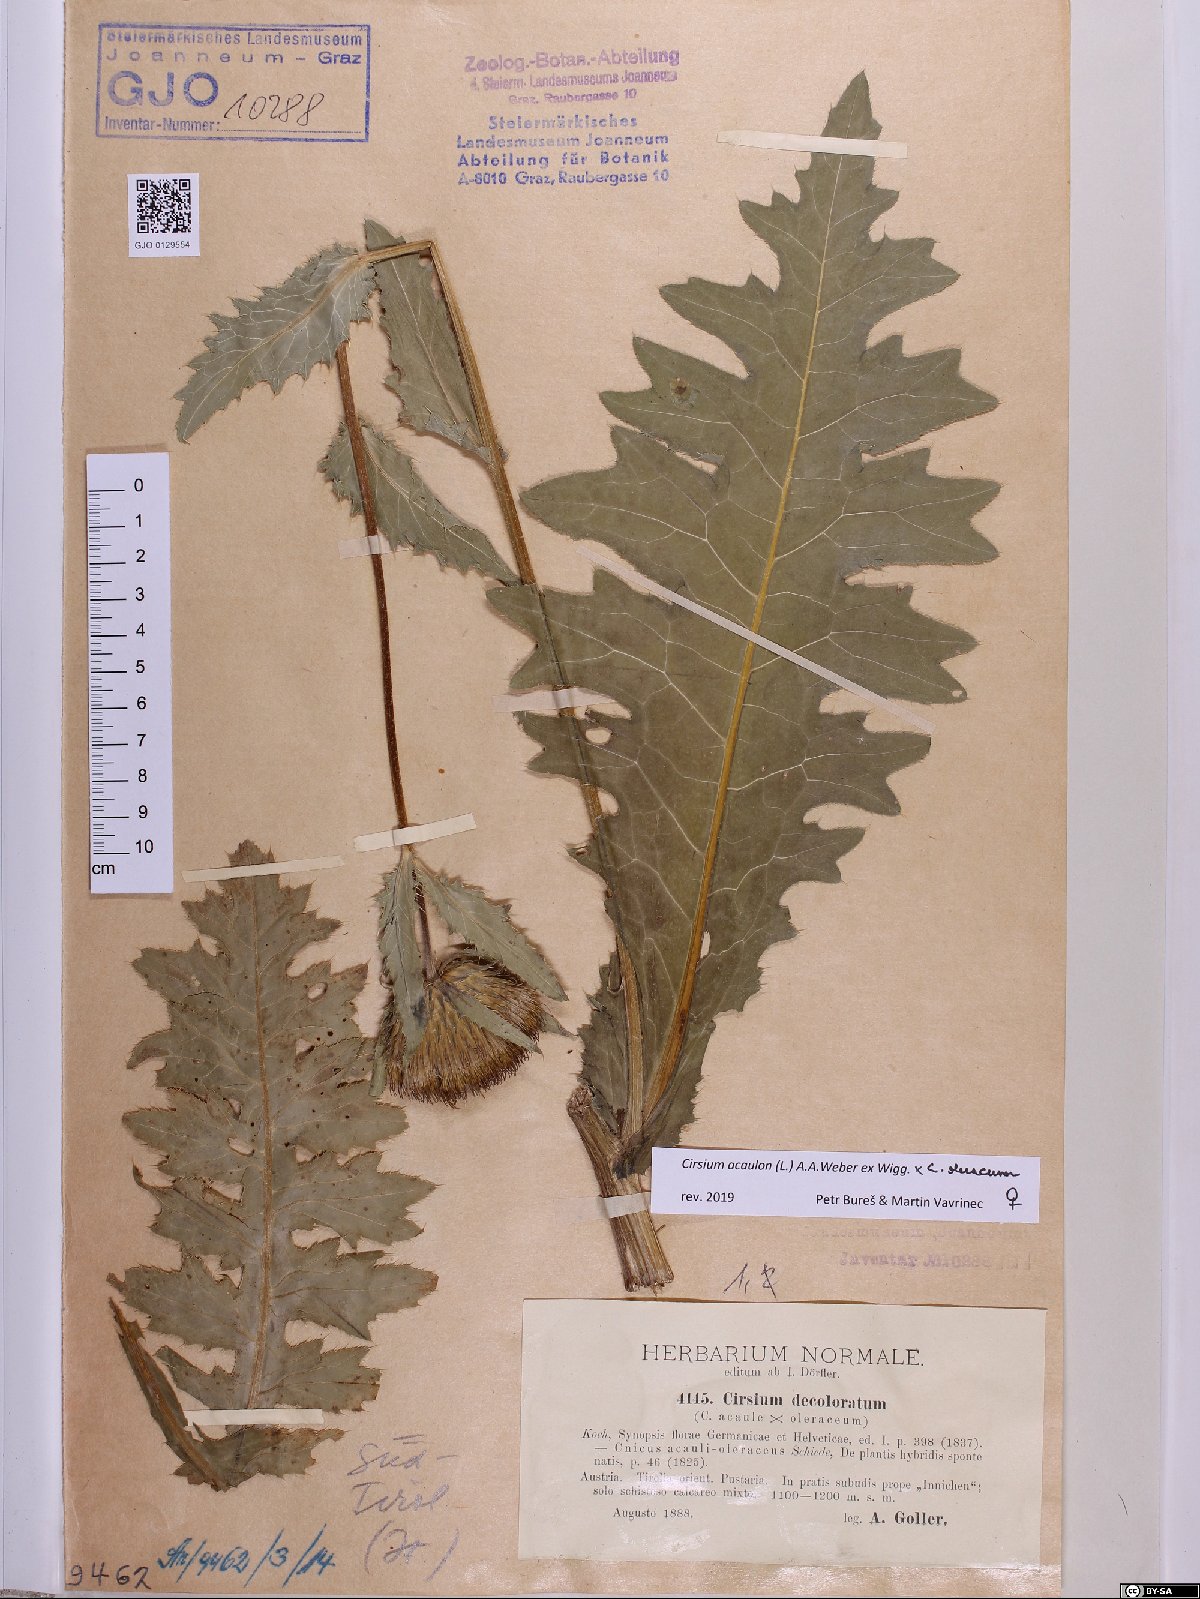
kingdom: Plantae
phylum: Tracheophyta
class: Magnoliopsida
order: Asterales
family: Asteraceae
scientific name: Asteraceae
